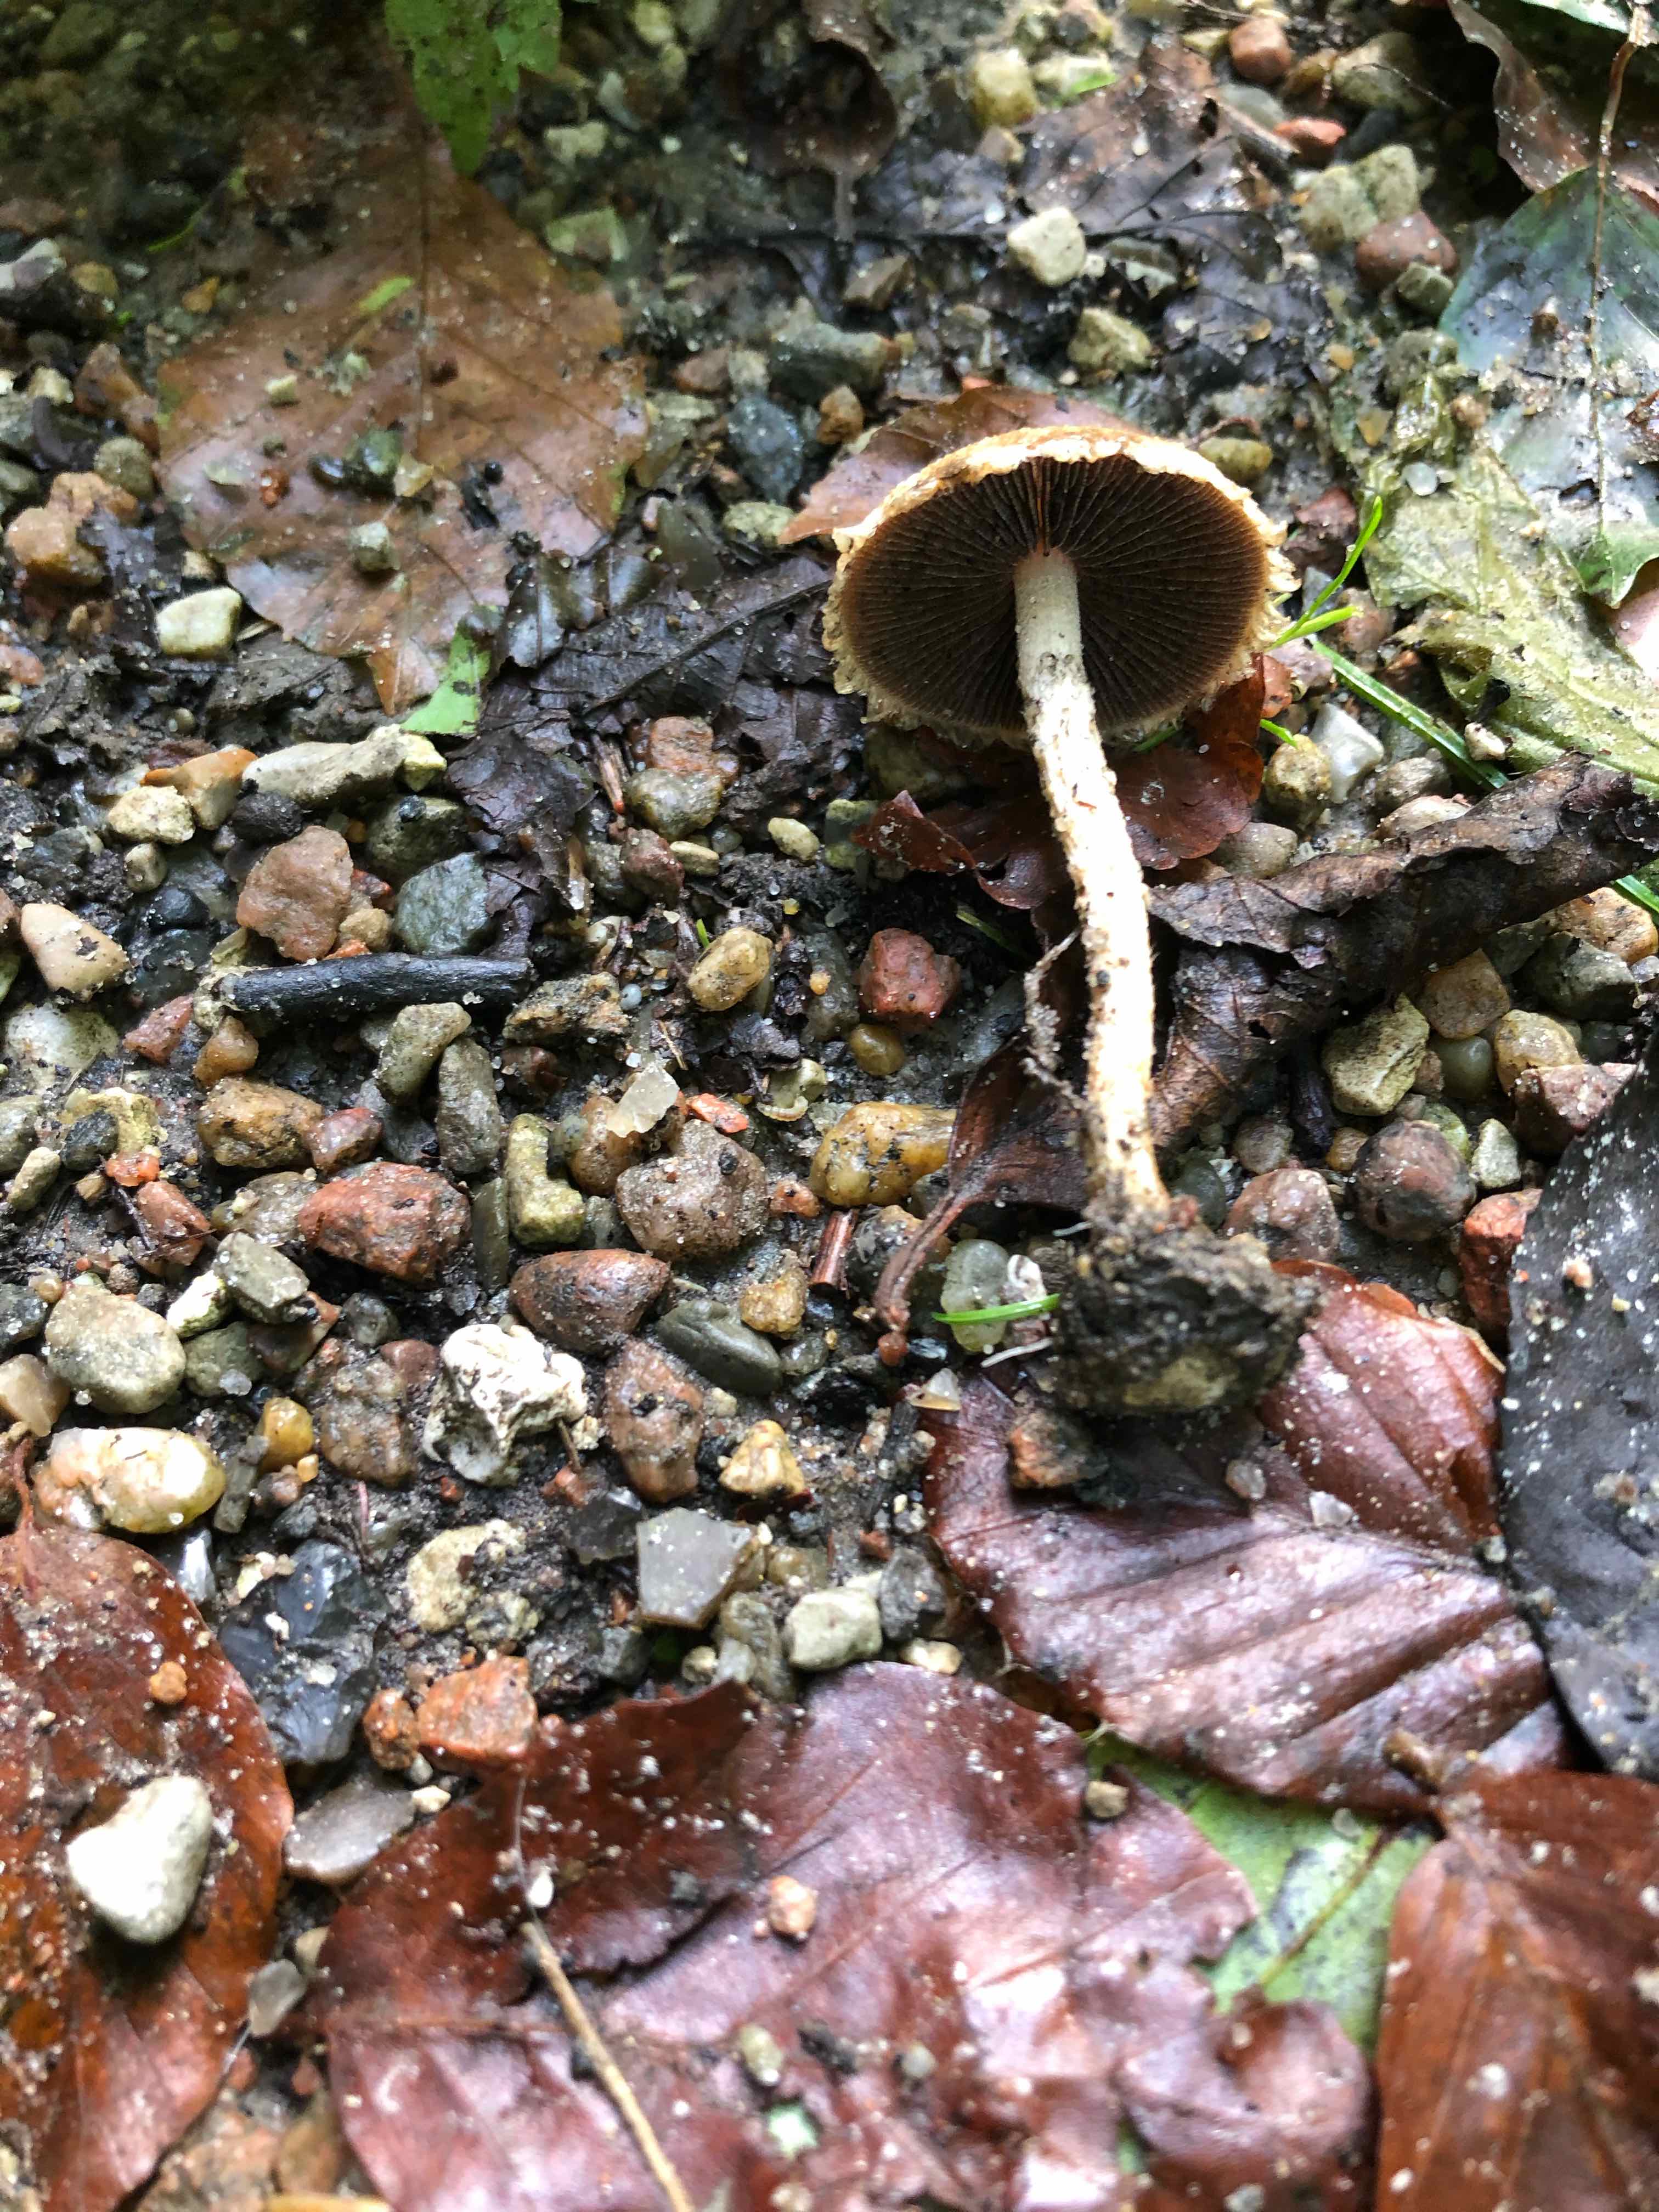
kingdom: Fungi
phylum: Basidiomycota
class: Agaricomycetes
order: Agaricales
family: Psathyrellaceae
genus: Lacrymaria
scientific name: Lacrymaria lacrymabunda
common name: grædende mørkhat
